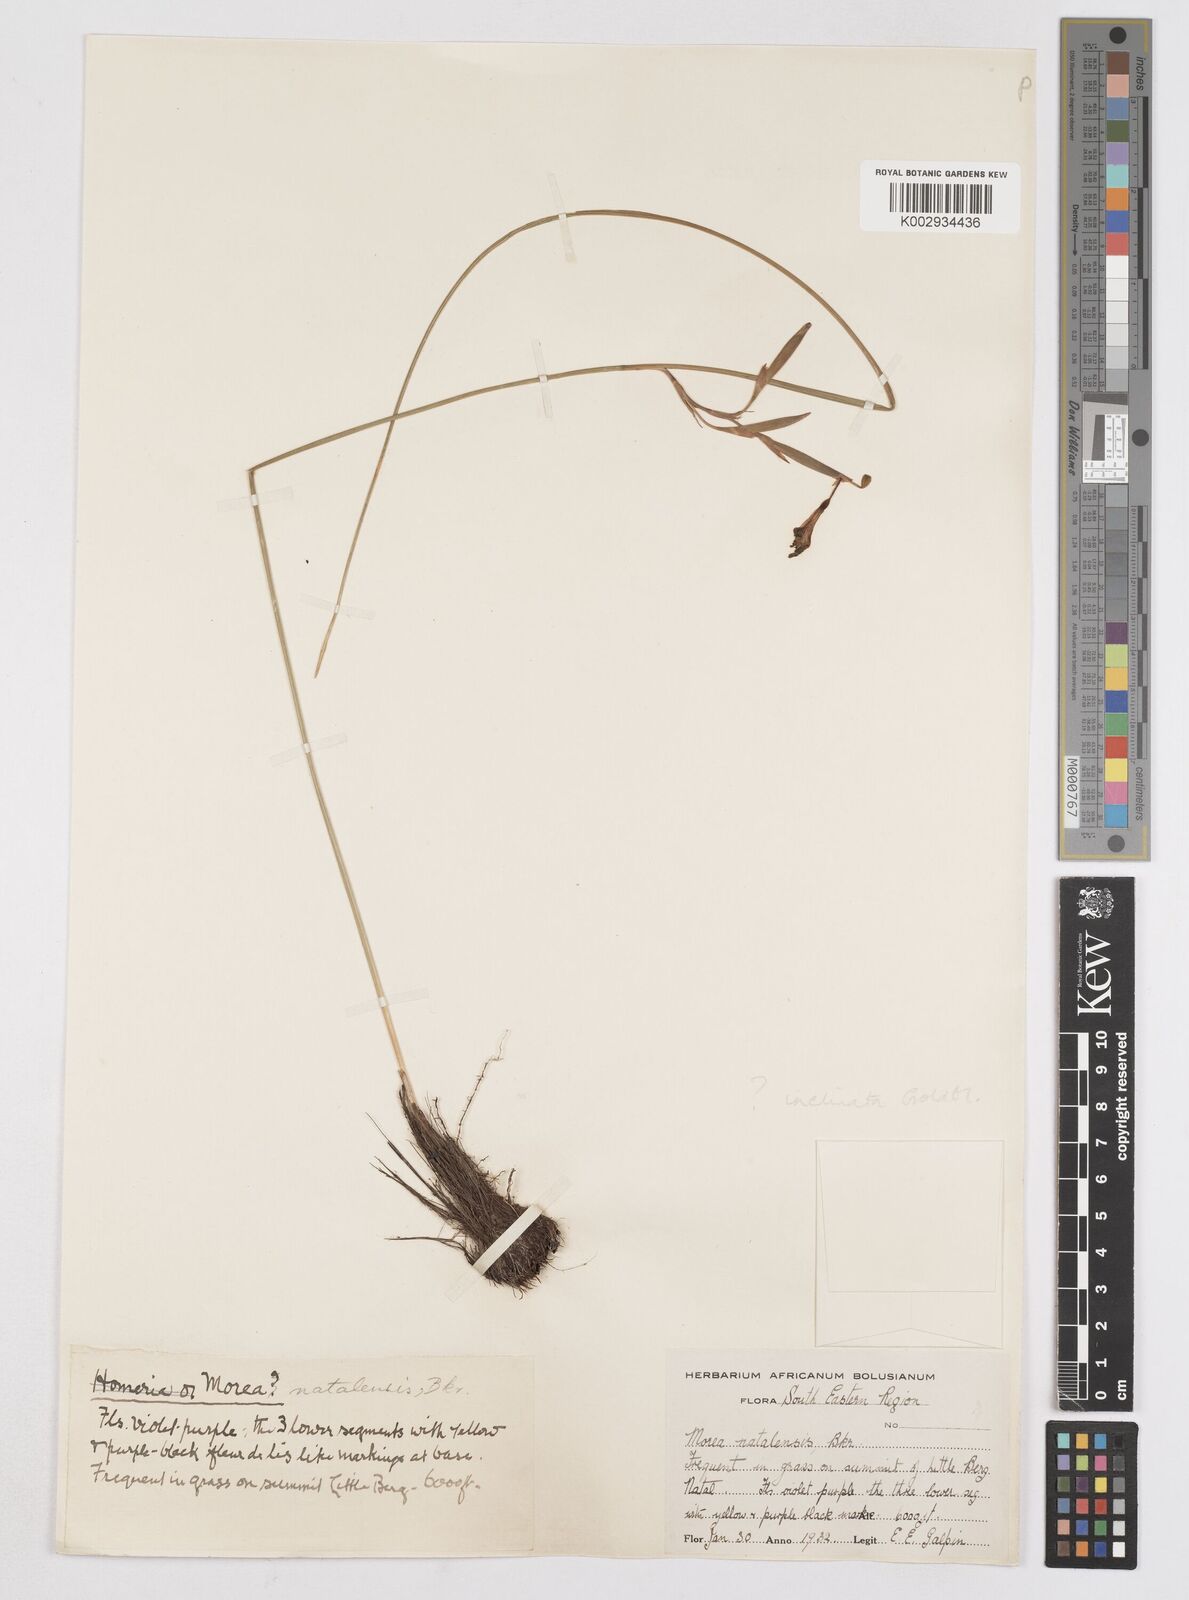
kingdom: Plantae
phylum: Tracheophyta
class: Liliopsida
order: Asparagales
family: Iridaceae
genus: Moraea
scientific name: Moraea inclinata
